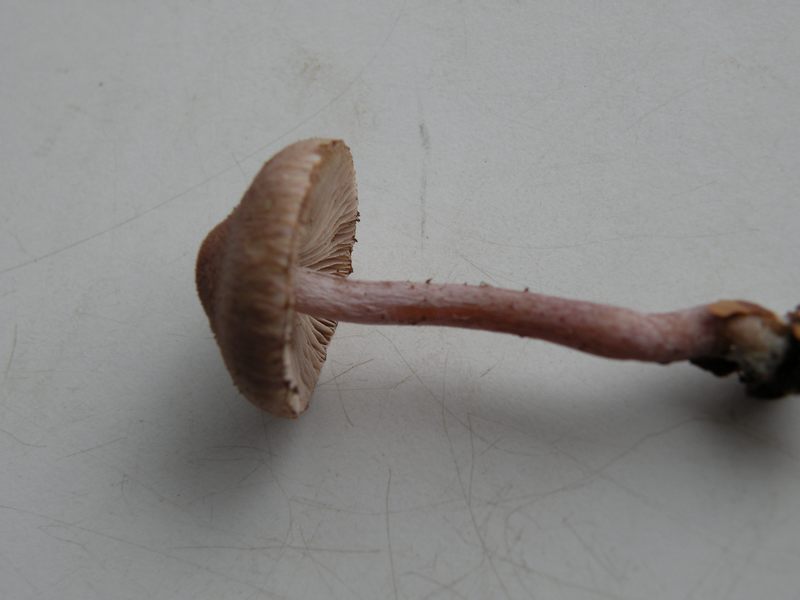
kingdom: Fungi
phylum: Basidiomycota
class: Agaricomycetes
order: Agaricales
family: Inocybaceae
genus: Inocybe
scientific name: Inocybe griseolilacina
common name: lillagrå trævlhat
